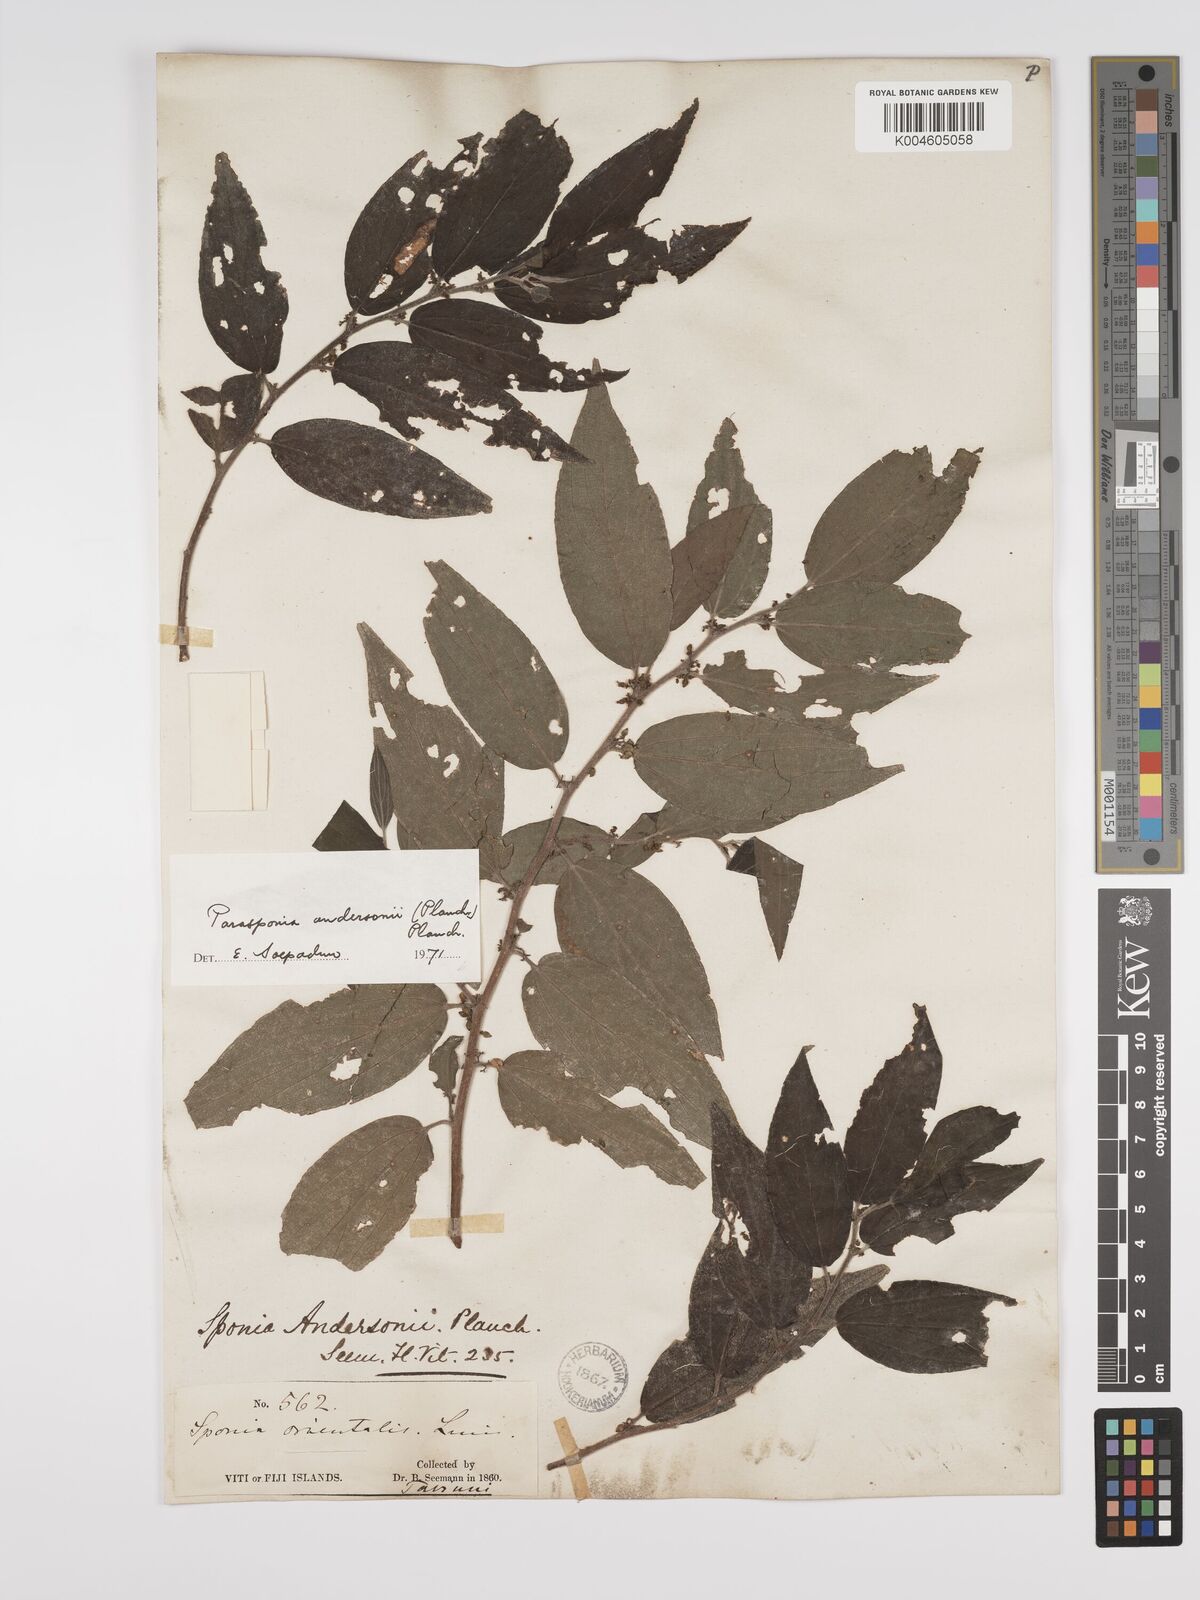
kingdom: Plantae
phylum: Tracheophyta
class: Magnoliopsida
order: Rosales
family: Cannabaceae
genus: Trema
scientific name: Trema andersonii
